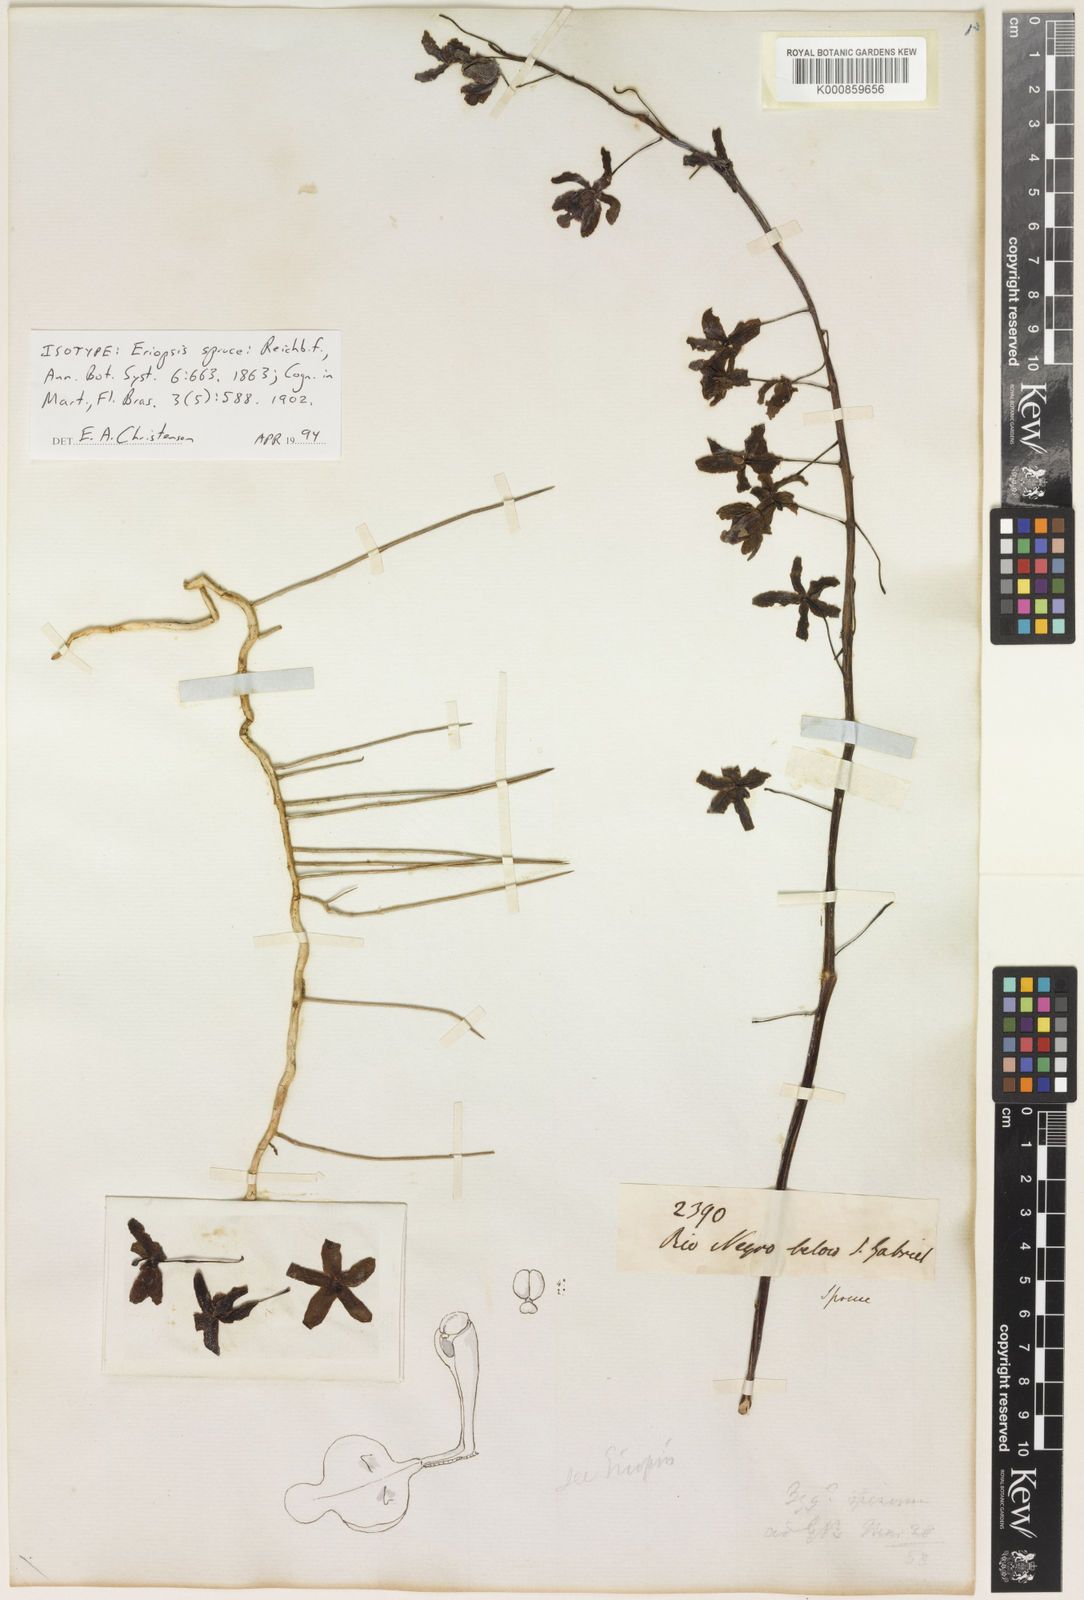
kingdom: Plantae
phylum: Tracheophyta
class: Liliopsida
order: Asparagales
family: Orchidaceae
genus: Eriopsis
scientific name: Eriopsis altissima
